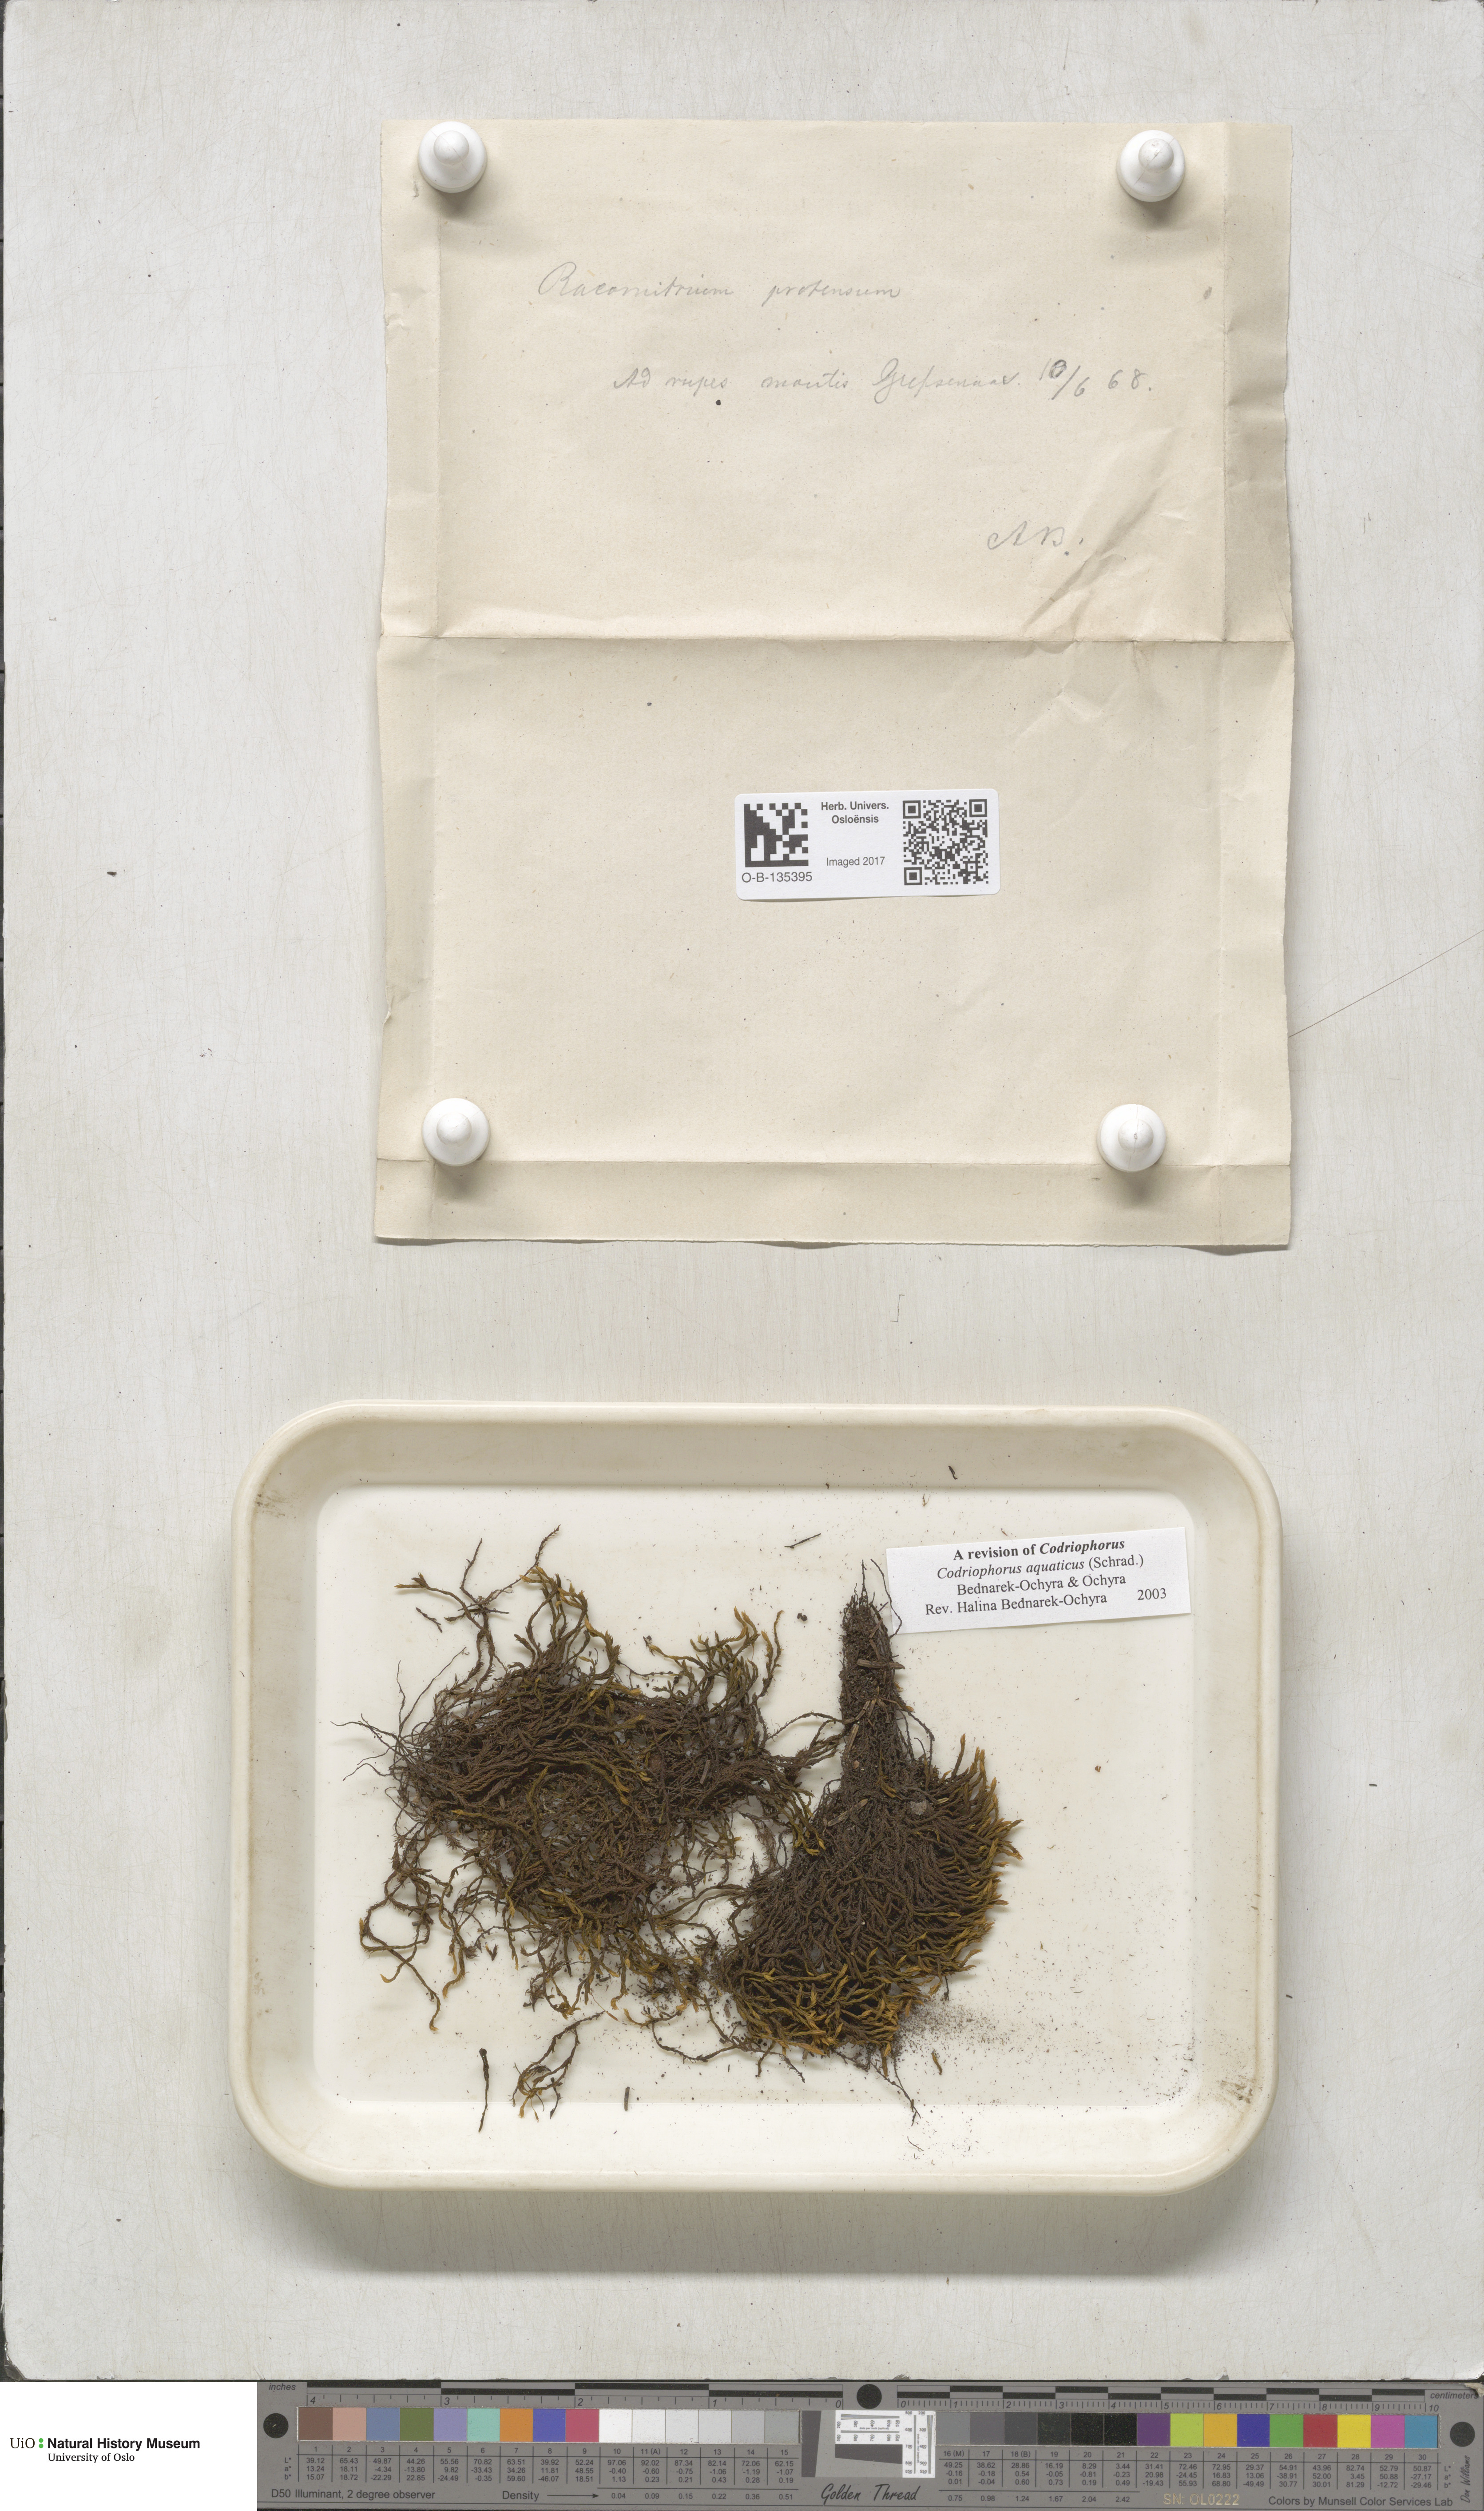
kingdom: Plantae
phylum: Bryophyta
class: Bryopsida
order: Grimmiales
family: Grimmiaceae
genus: Codriophorus
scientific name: Codriophorus aquaticus
